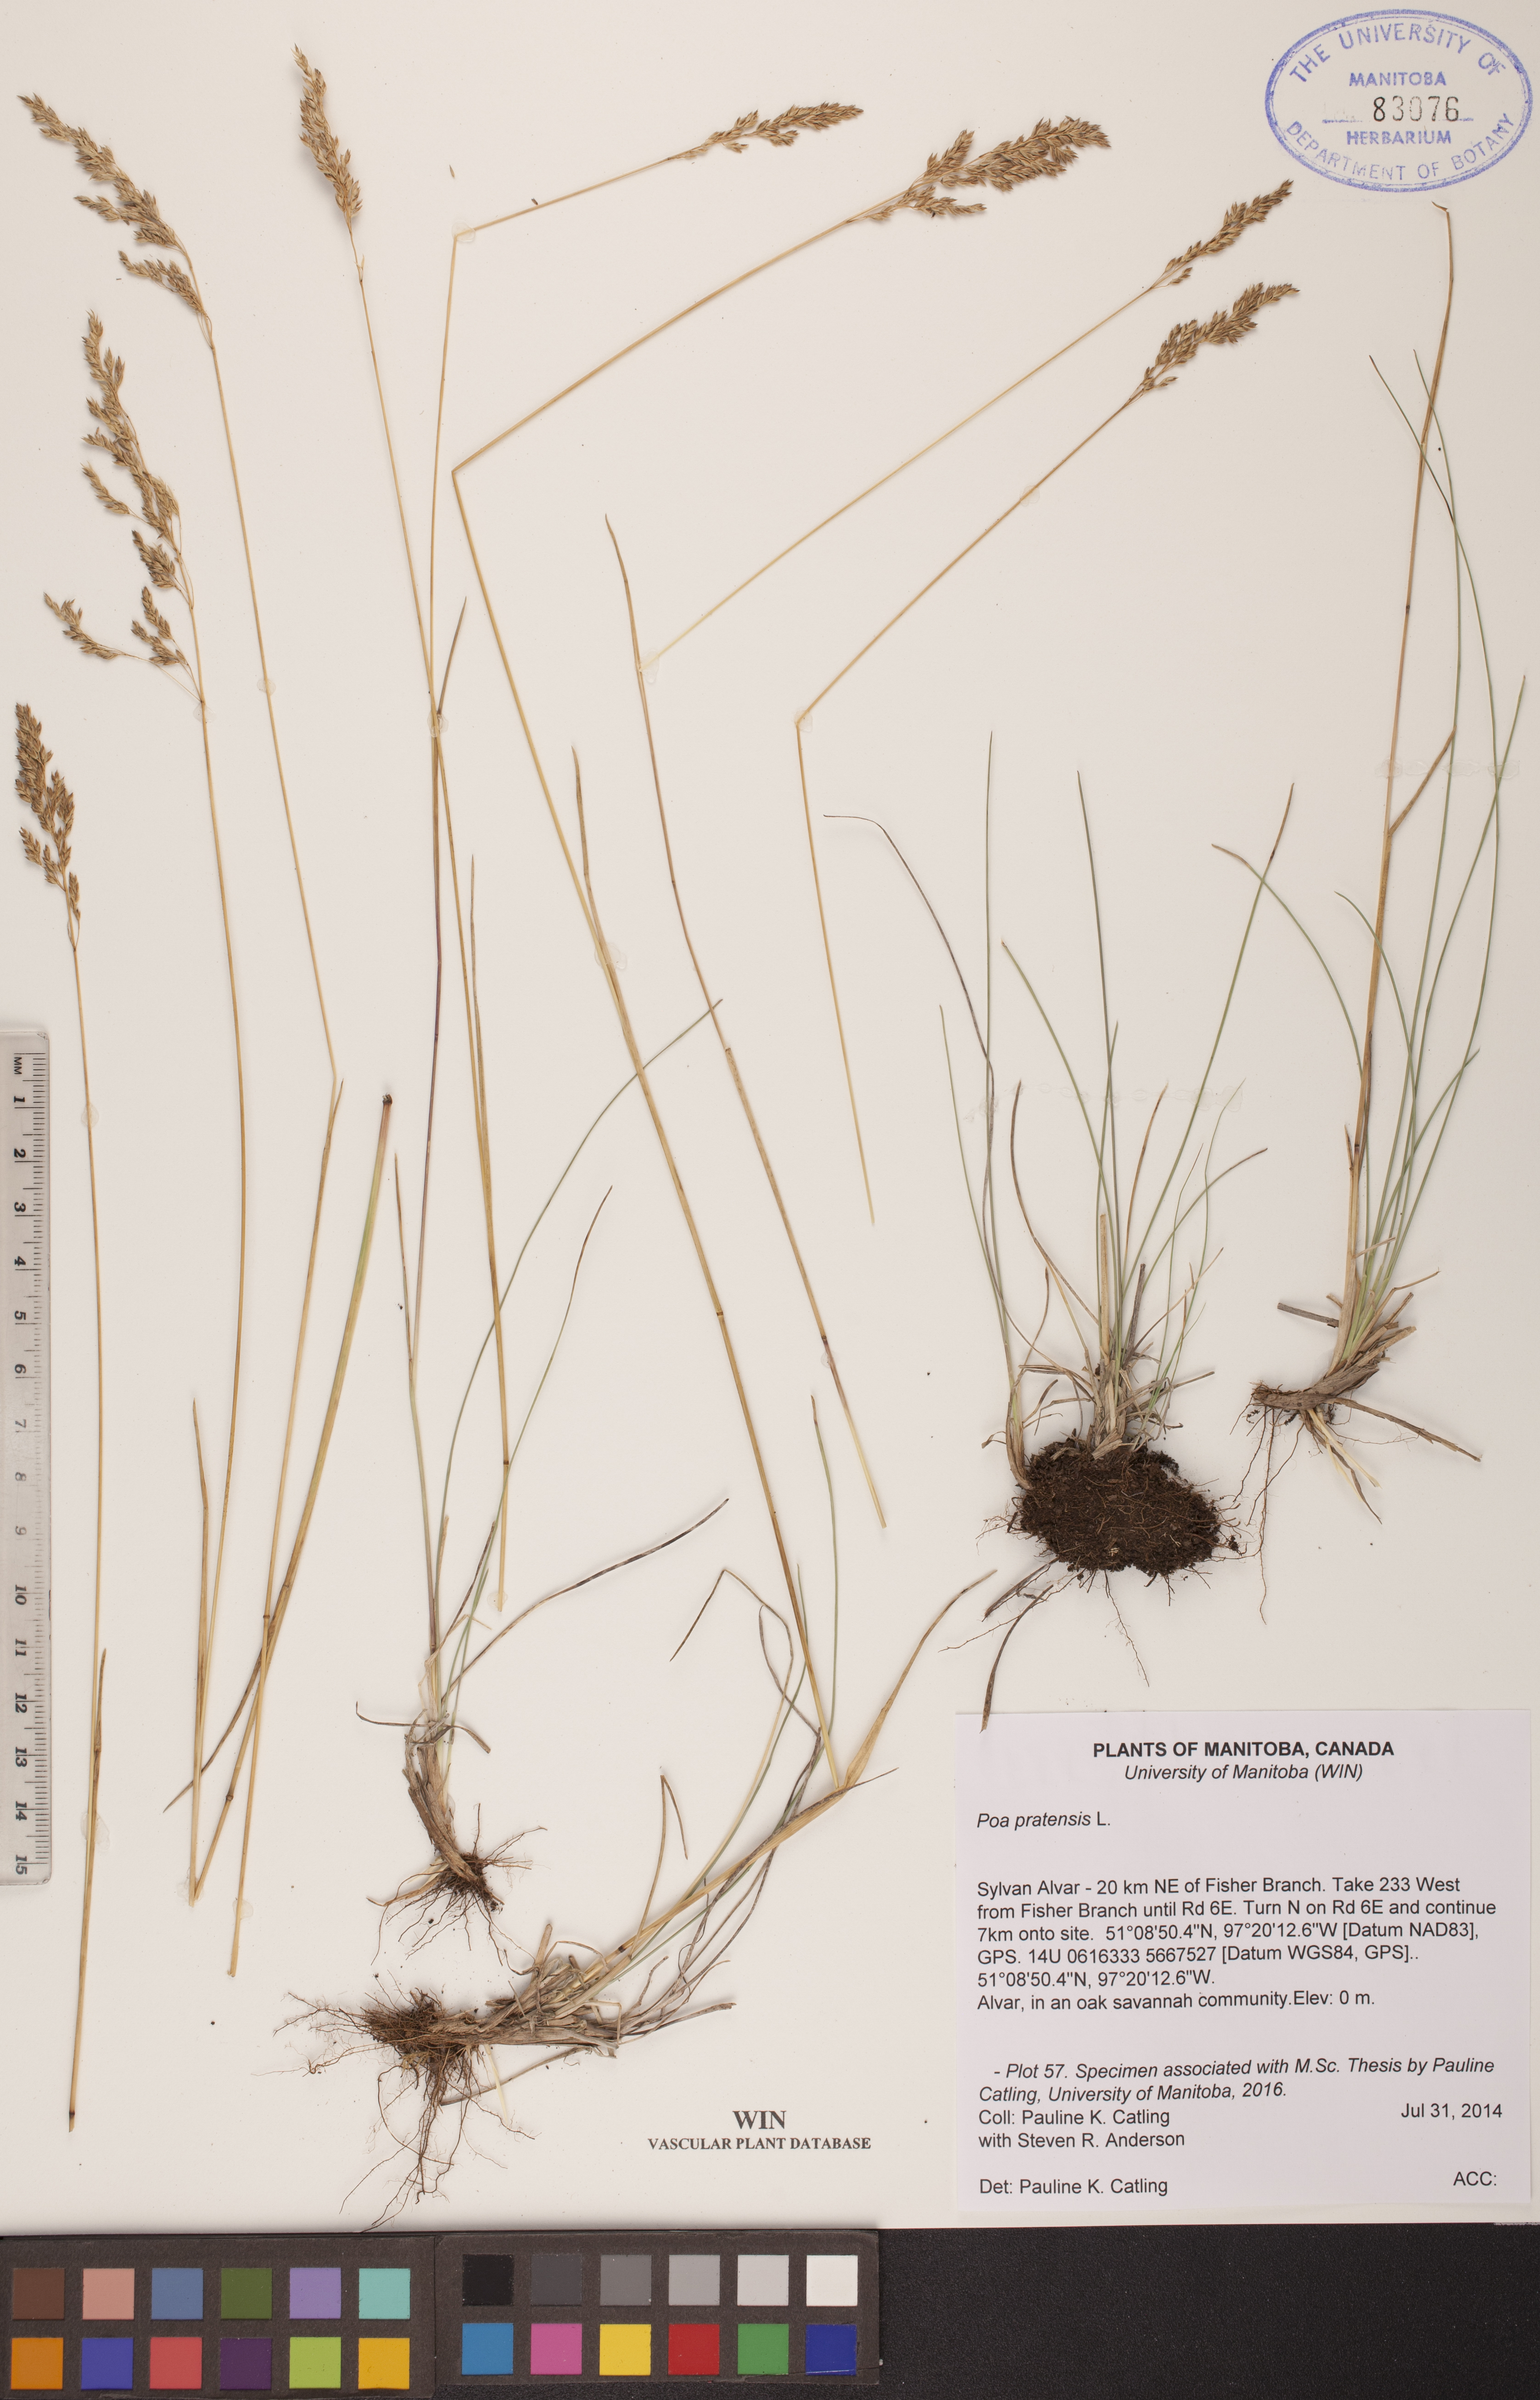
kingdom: Plantae
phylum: Tracheophyta
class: Liliopsida
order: Poales
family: Poaceae
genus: Poa
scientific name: Poa pratensis
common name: Kentucky bluegrass
